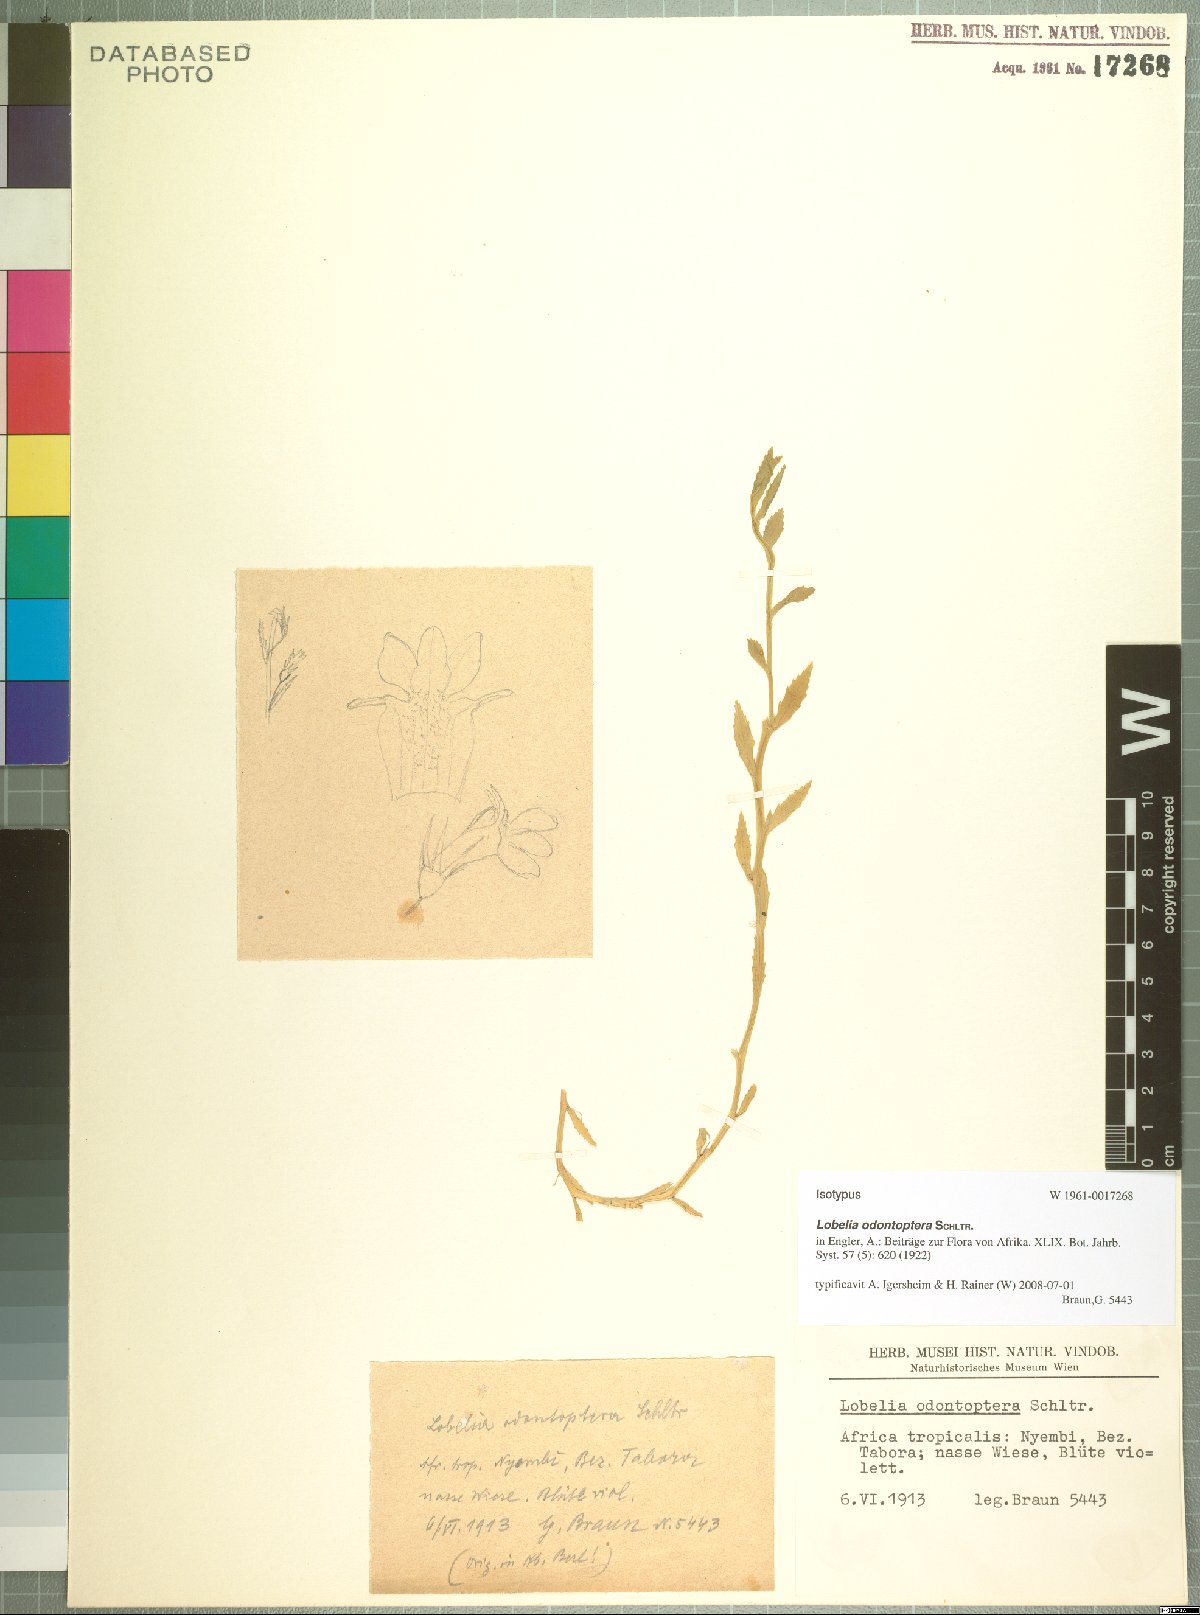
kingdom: Plantae
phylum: Tracheophyta
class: Magnoliopsida
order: Asterales
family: Campanulaceae
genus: Lobelia
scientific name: Lobelia fervens
